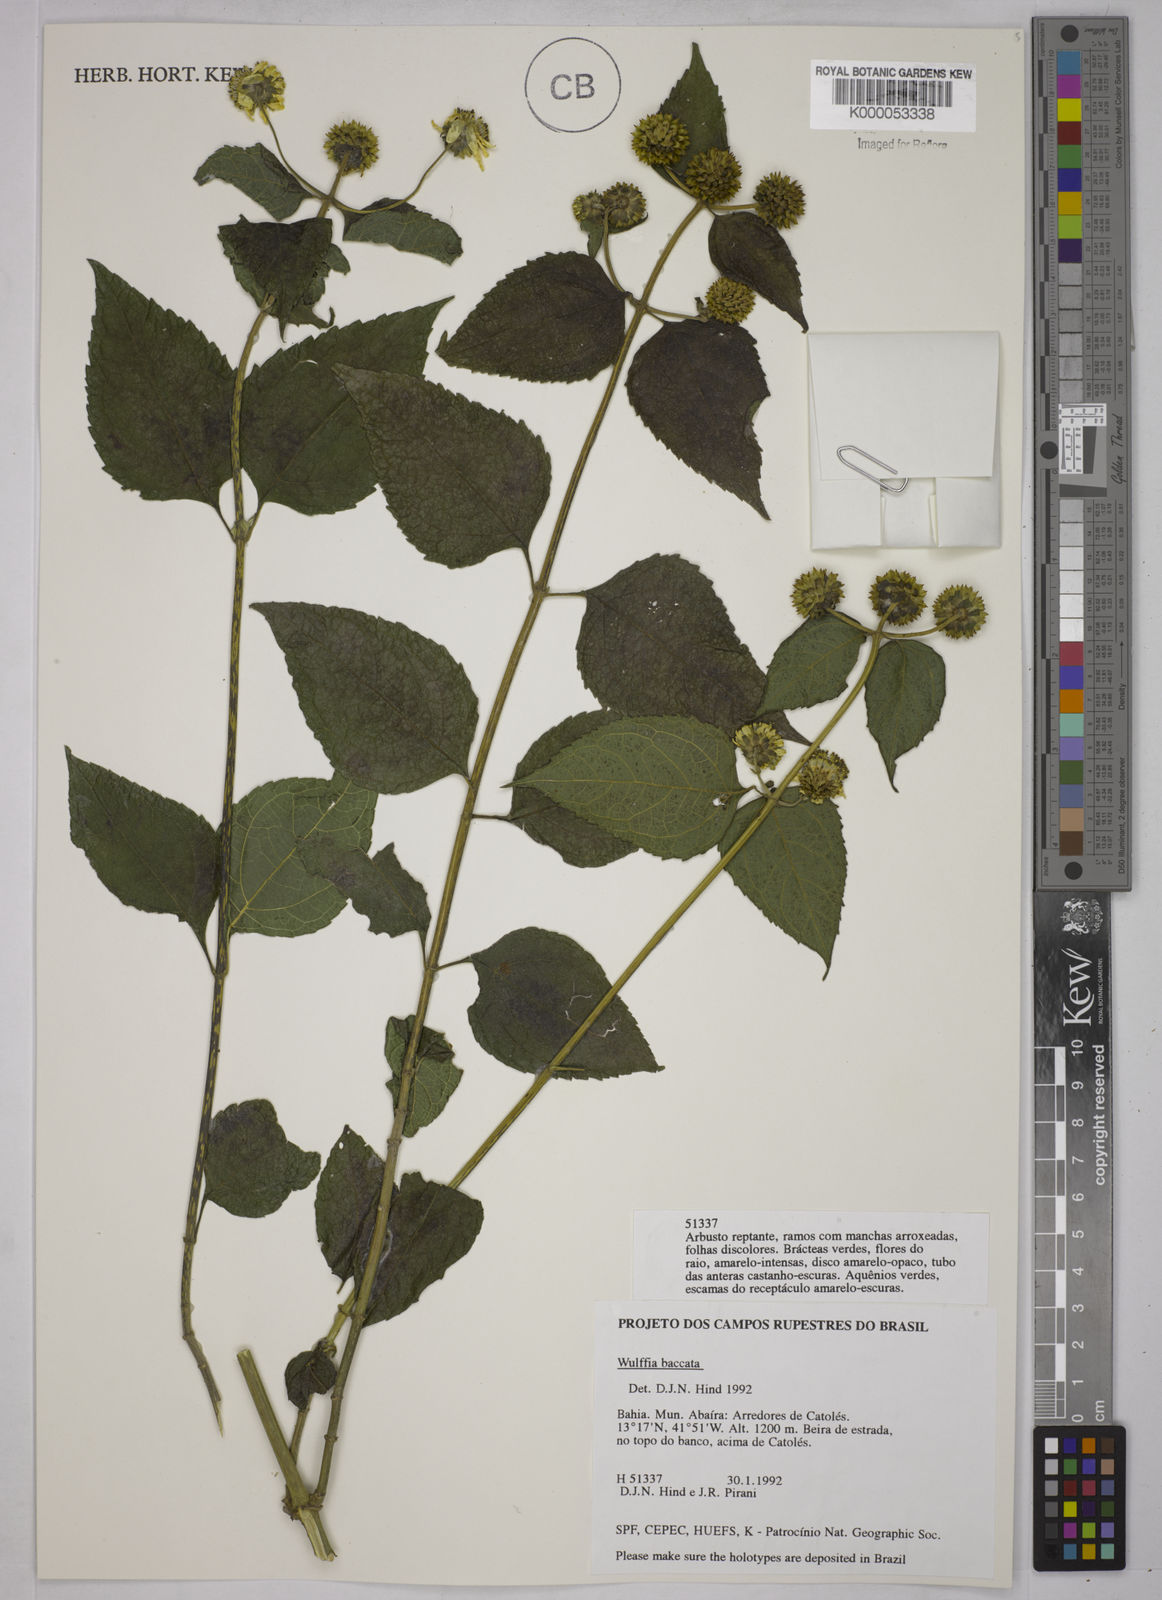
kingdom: Plantae
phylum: Tracheophyta
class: Magnoliopsida
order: Asterales
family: Asteraceae
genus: Tilesia
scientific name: Tilesia baccata
